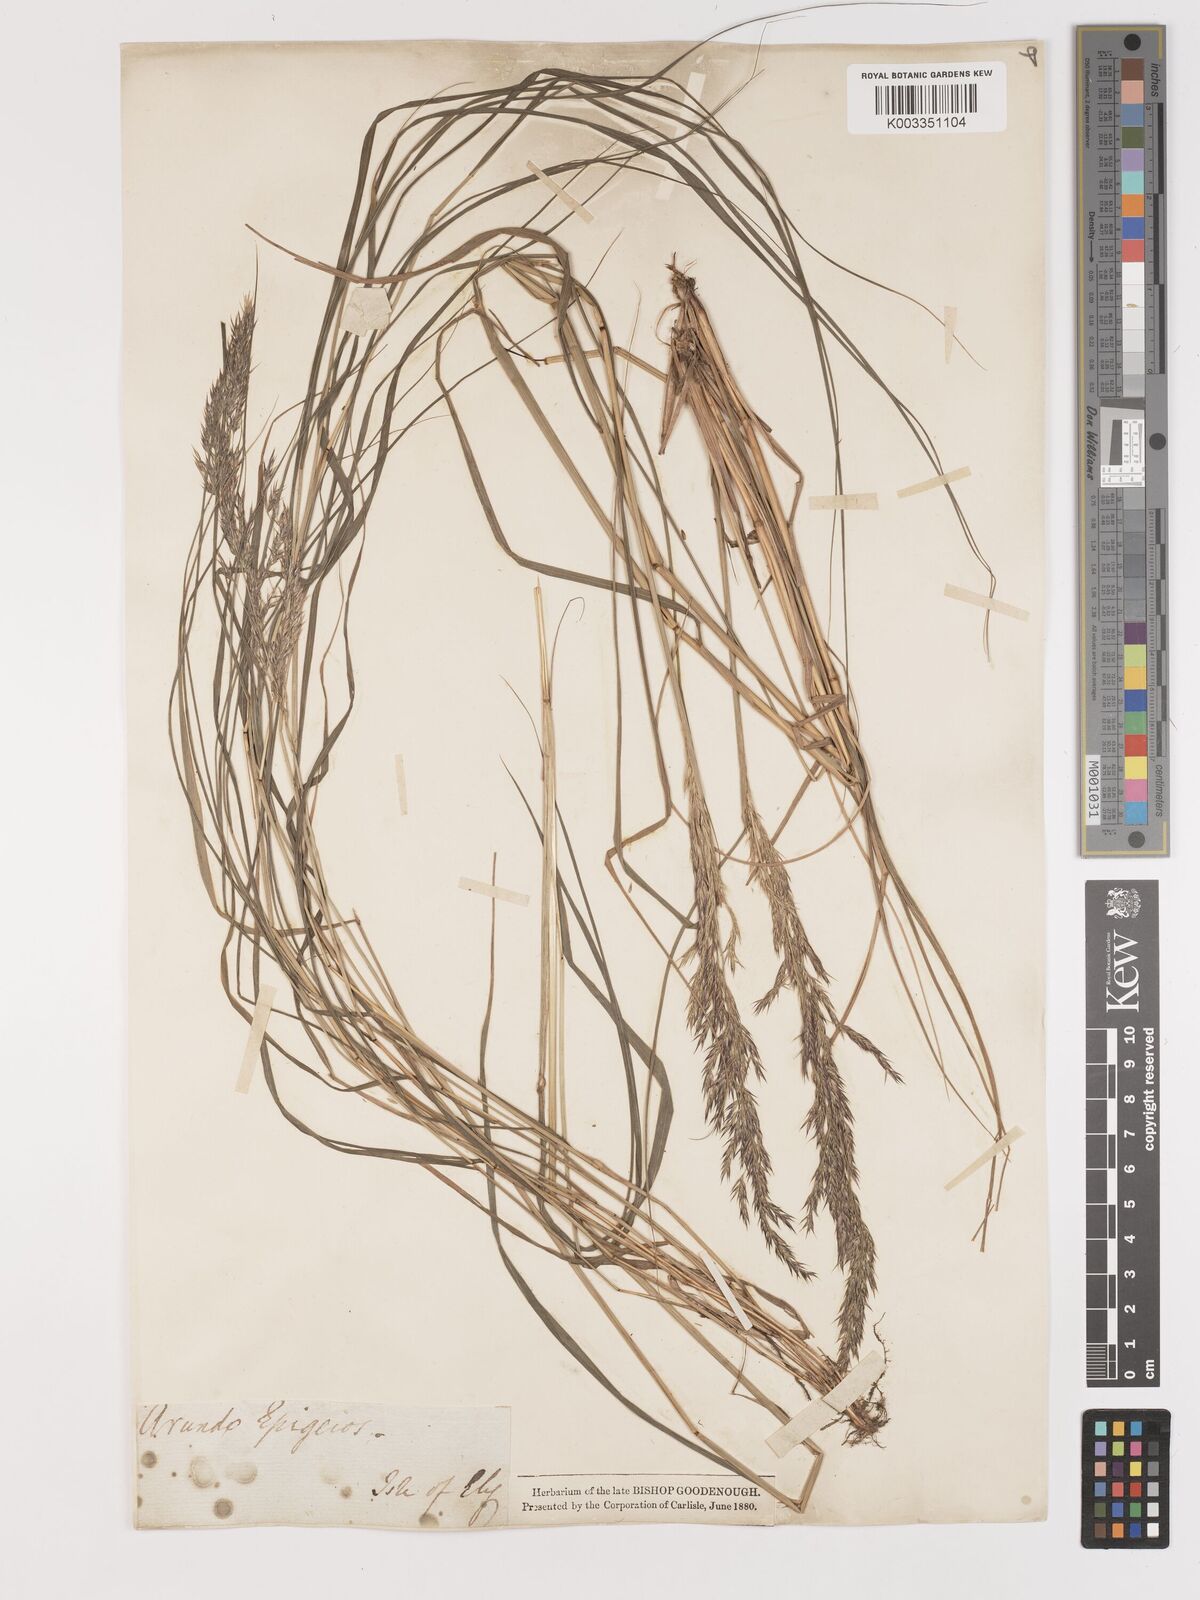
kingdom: Plantae
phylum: Tracheophyta
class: Liliopsida
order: Poales
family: Poaceae
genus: Calamagrostis
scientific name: Calamagrostis
